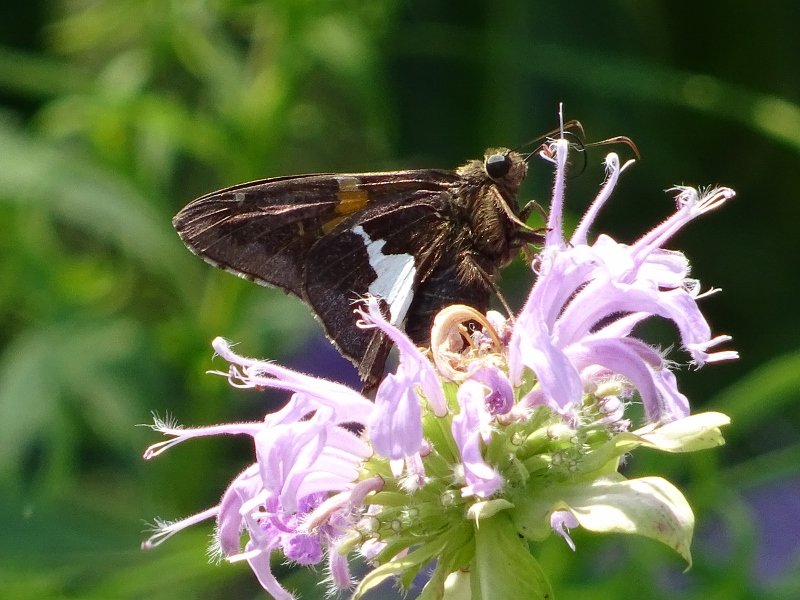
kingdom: Animalia
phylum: Arthropoda
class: Insecta
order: Lepidoptera
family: Hesperiidae
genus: Epargyreus
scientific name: Epargyreus clarus
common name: Silver-spotted Skipper
